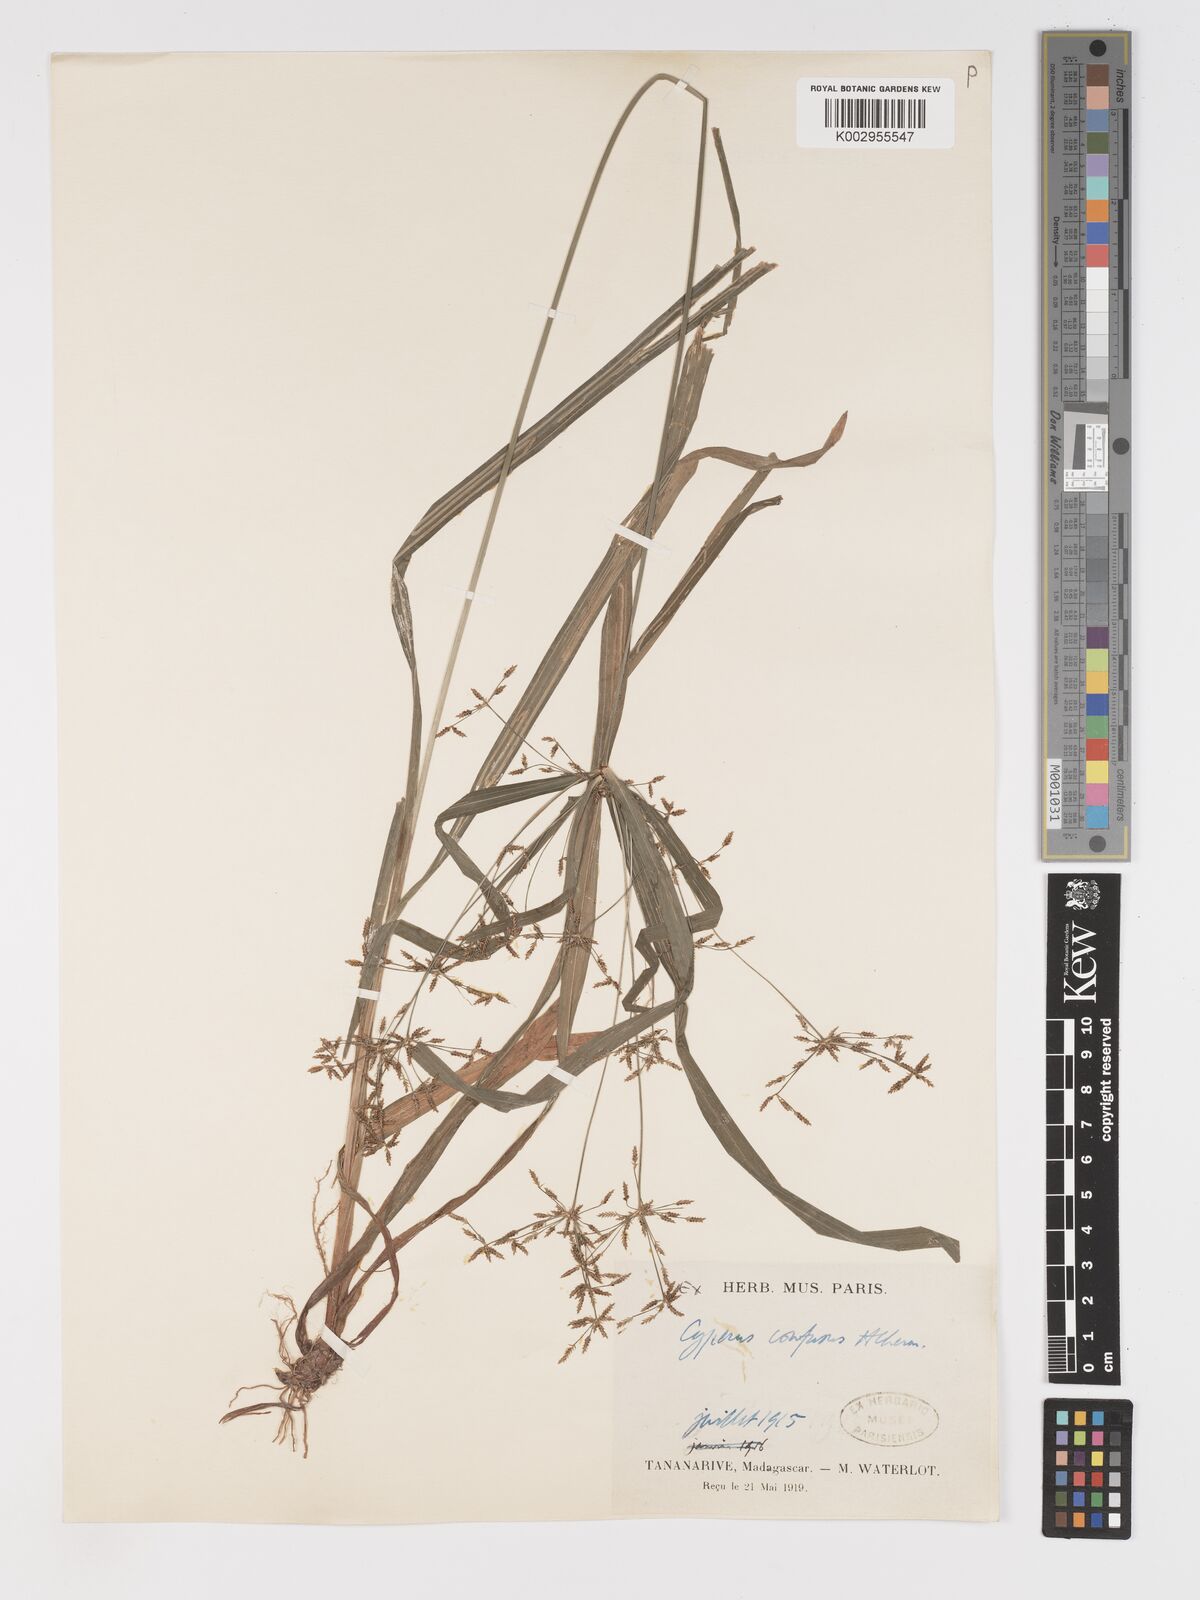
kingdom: Plantae
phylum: Tracheophyta
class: Liliopsida
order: Poales
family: Cyperaceae
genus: Cyperus
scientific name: Cyperus longifolius
